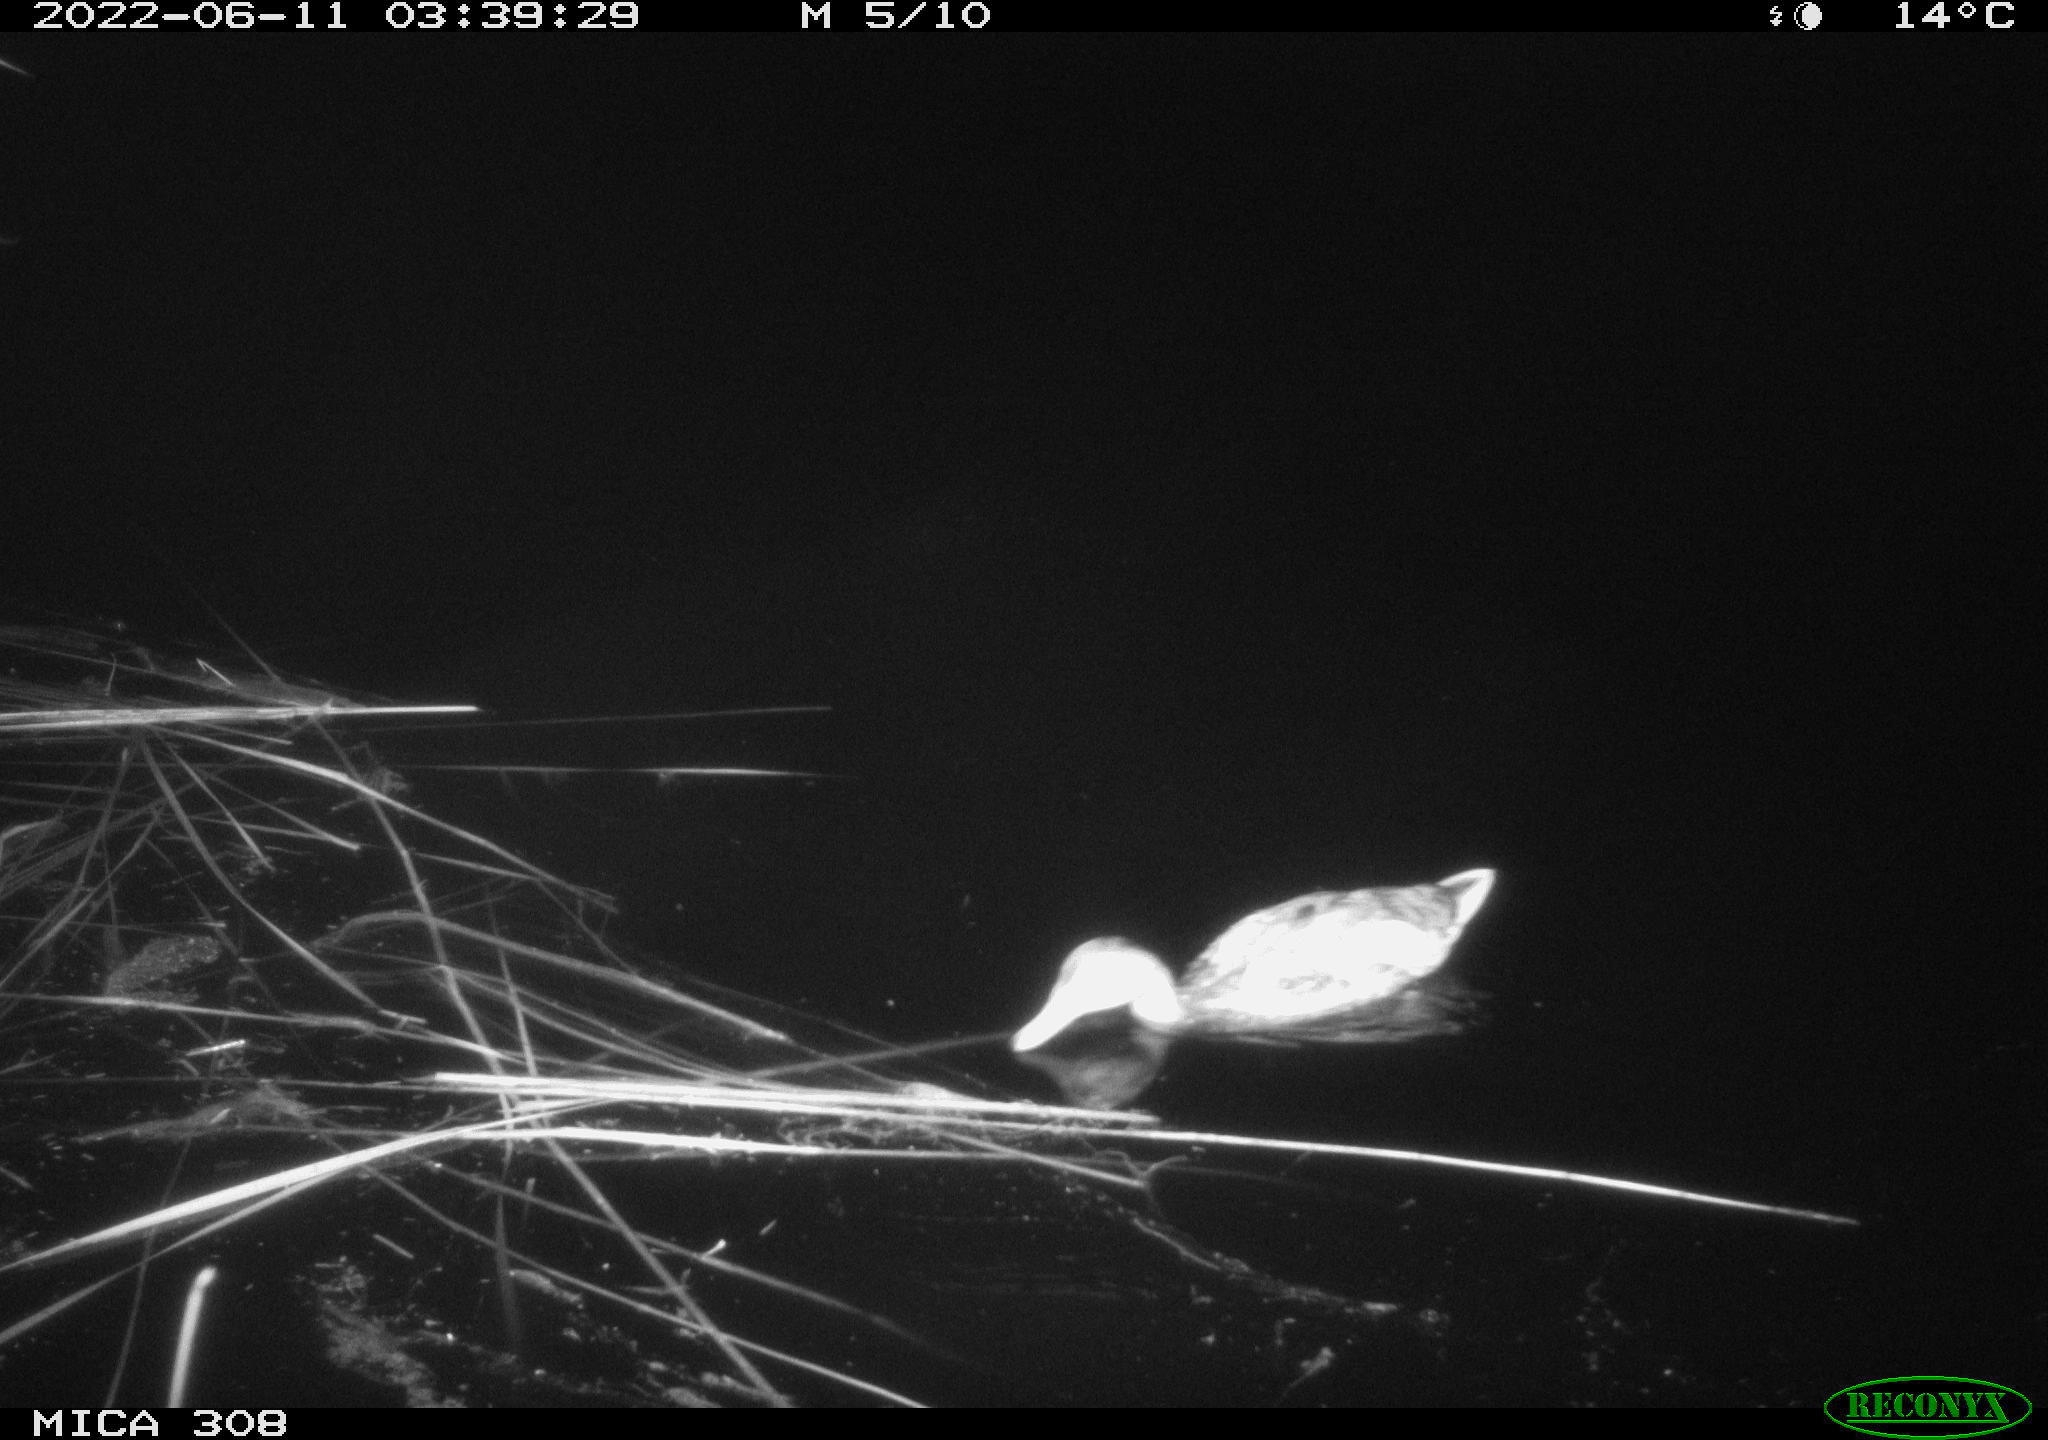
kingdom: Animalia
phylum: Chordata
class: Aves
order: Anseriformes
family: Anatidae
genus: Anas
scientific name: Anas platyrhynchos
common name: Mallard
